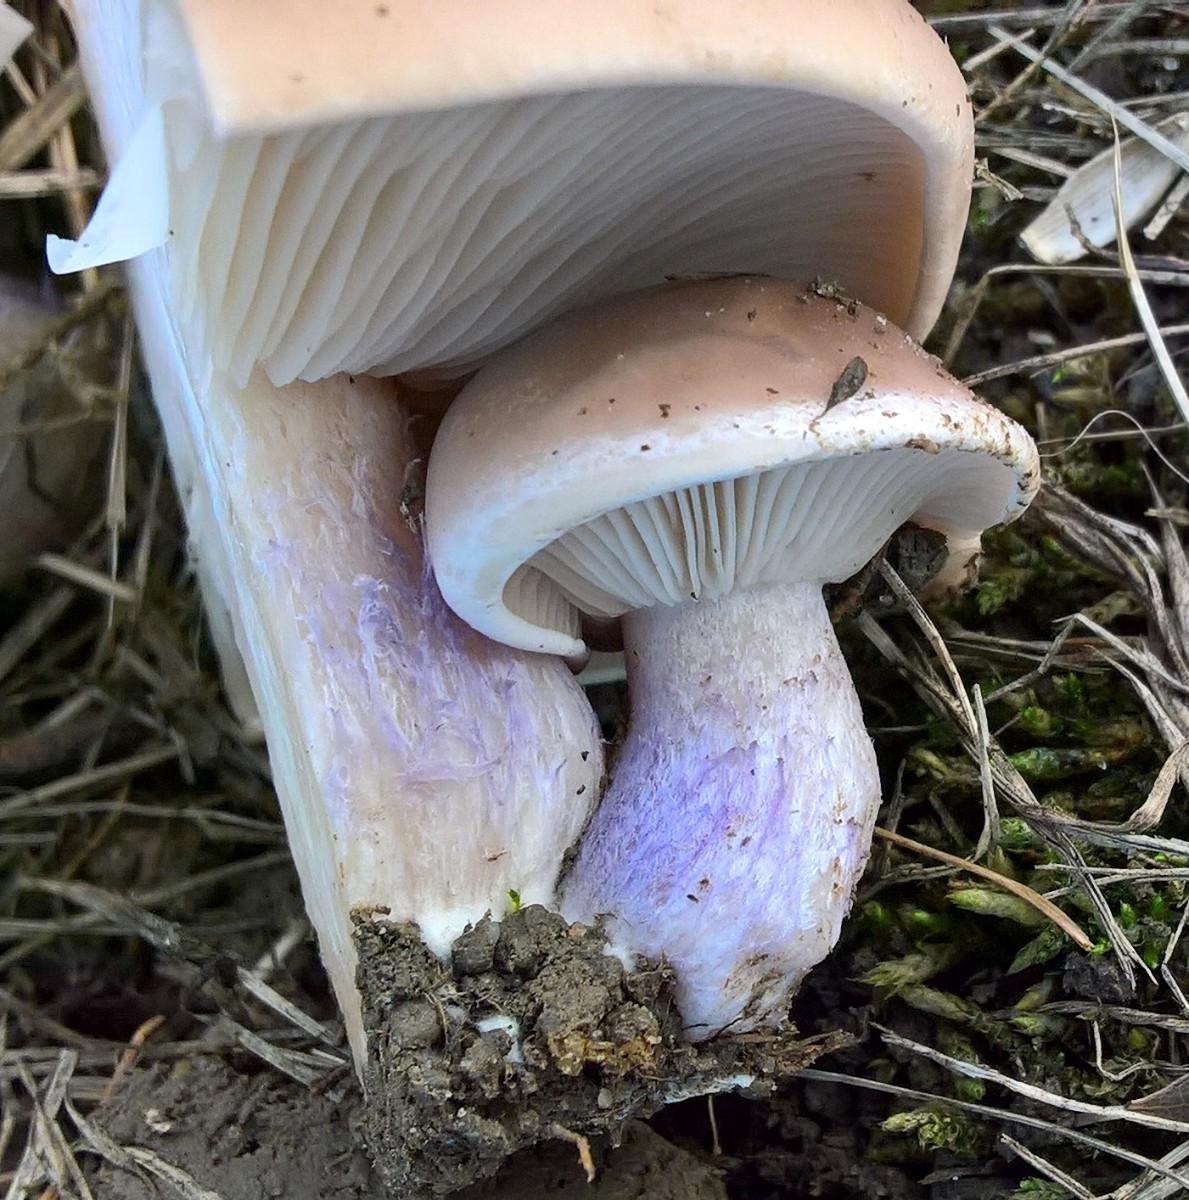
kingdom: Fungi
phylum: Basidiomycota
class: Agaricomycetes
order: Agaricales
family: Tricholomataceae
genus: Lepista
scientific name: Lepista personata
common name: bleg hekseringshat
